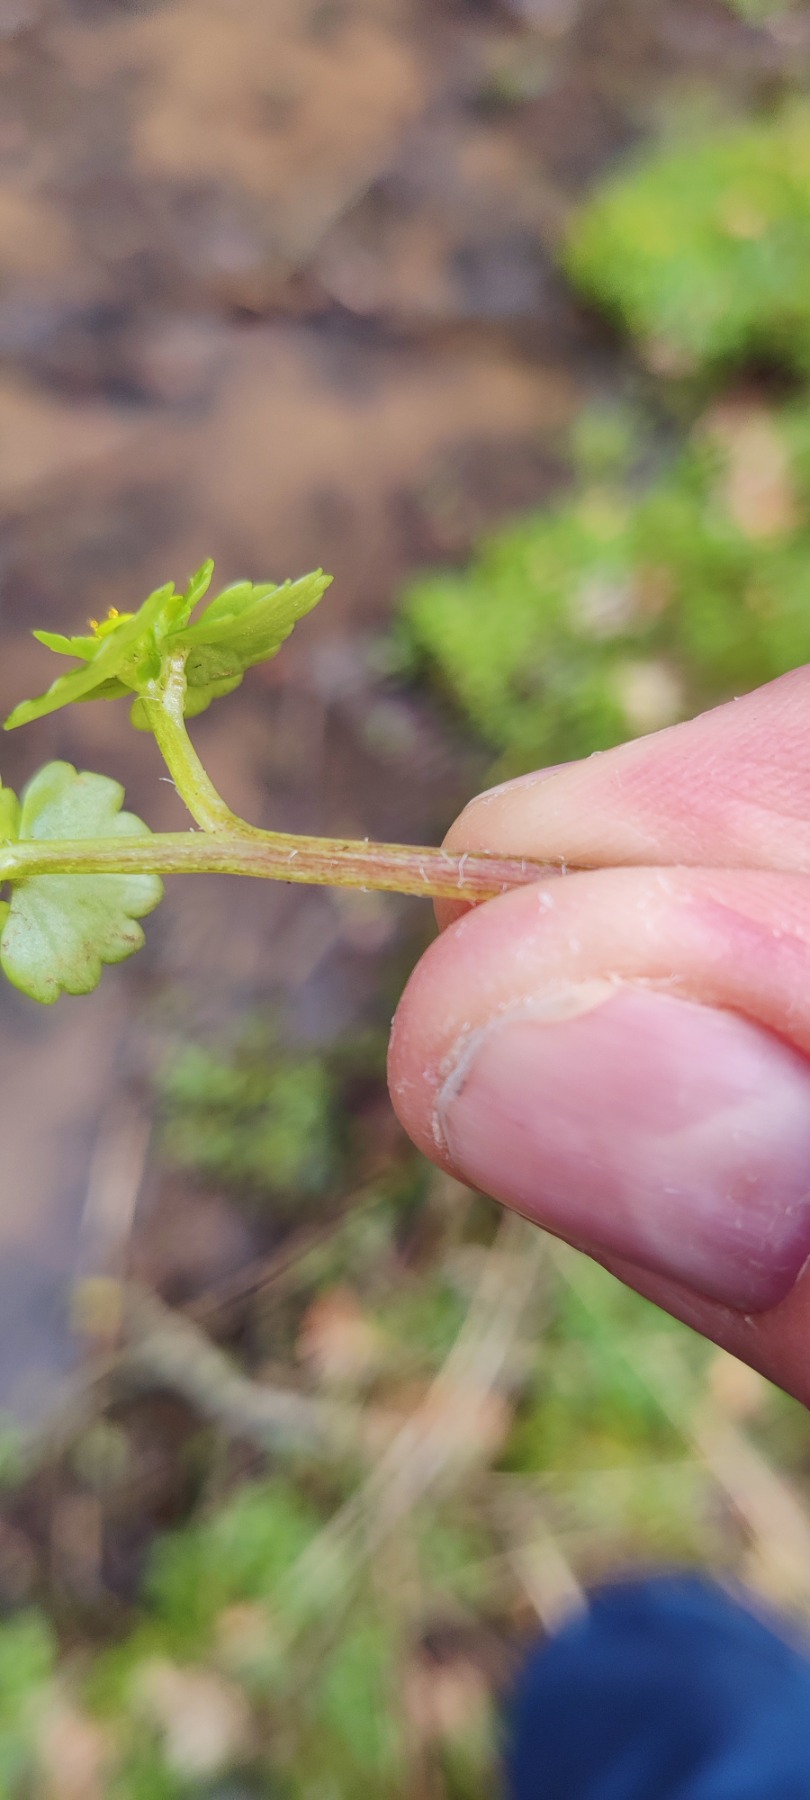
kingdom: Plantae
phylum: Tracheophyta
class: Magnoliopsida
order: Saxifragales
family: Saxifragaceae
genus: Chrysosplenium
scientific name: Chrysosplenium alternifolium
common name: Almindelig milturt
